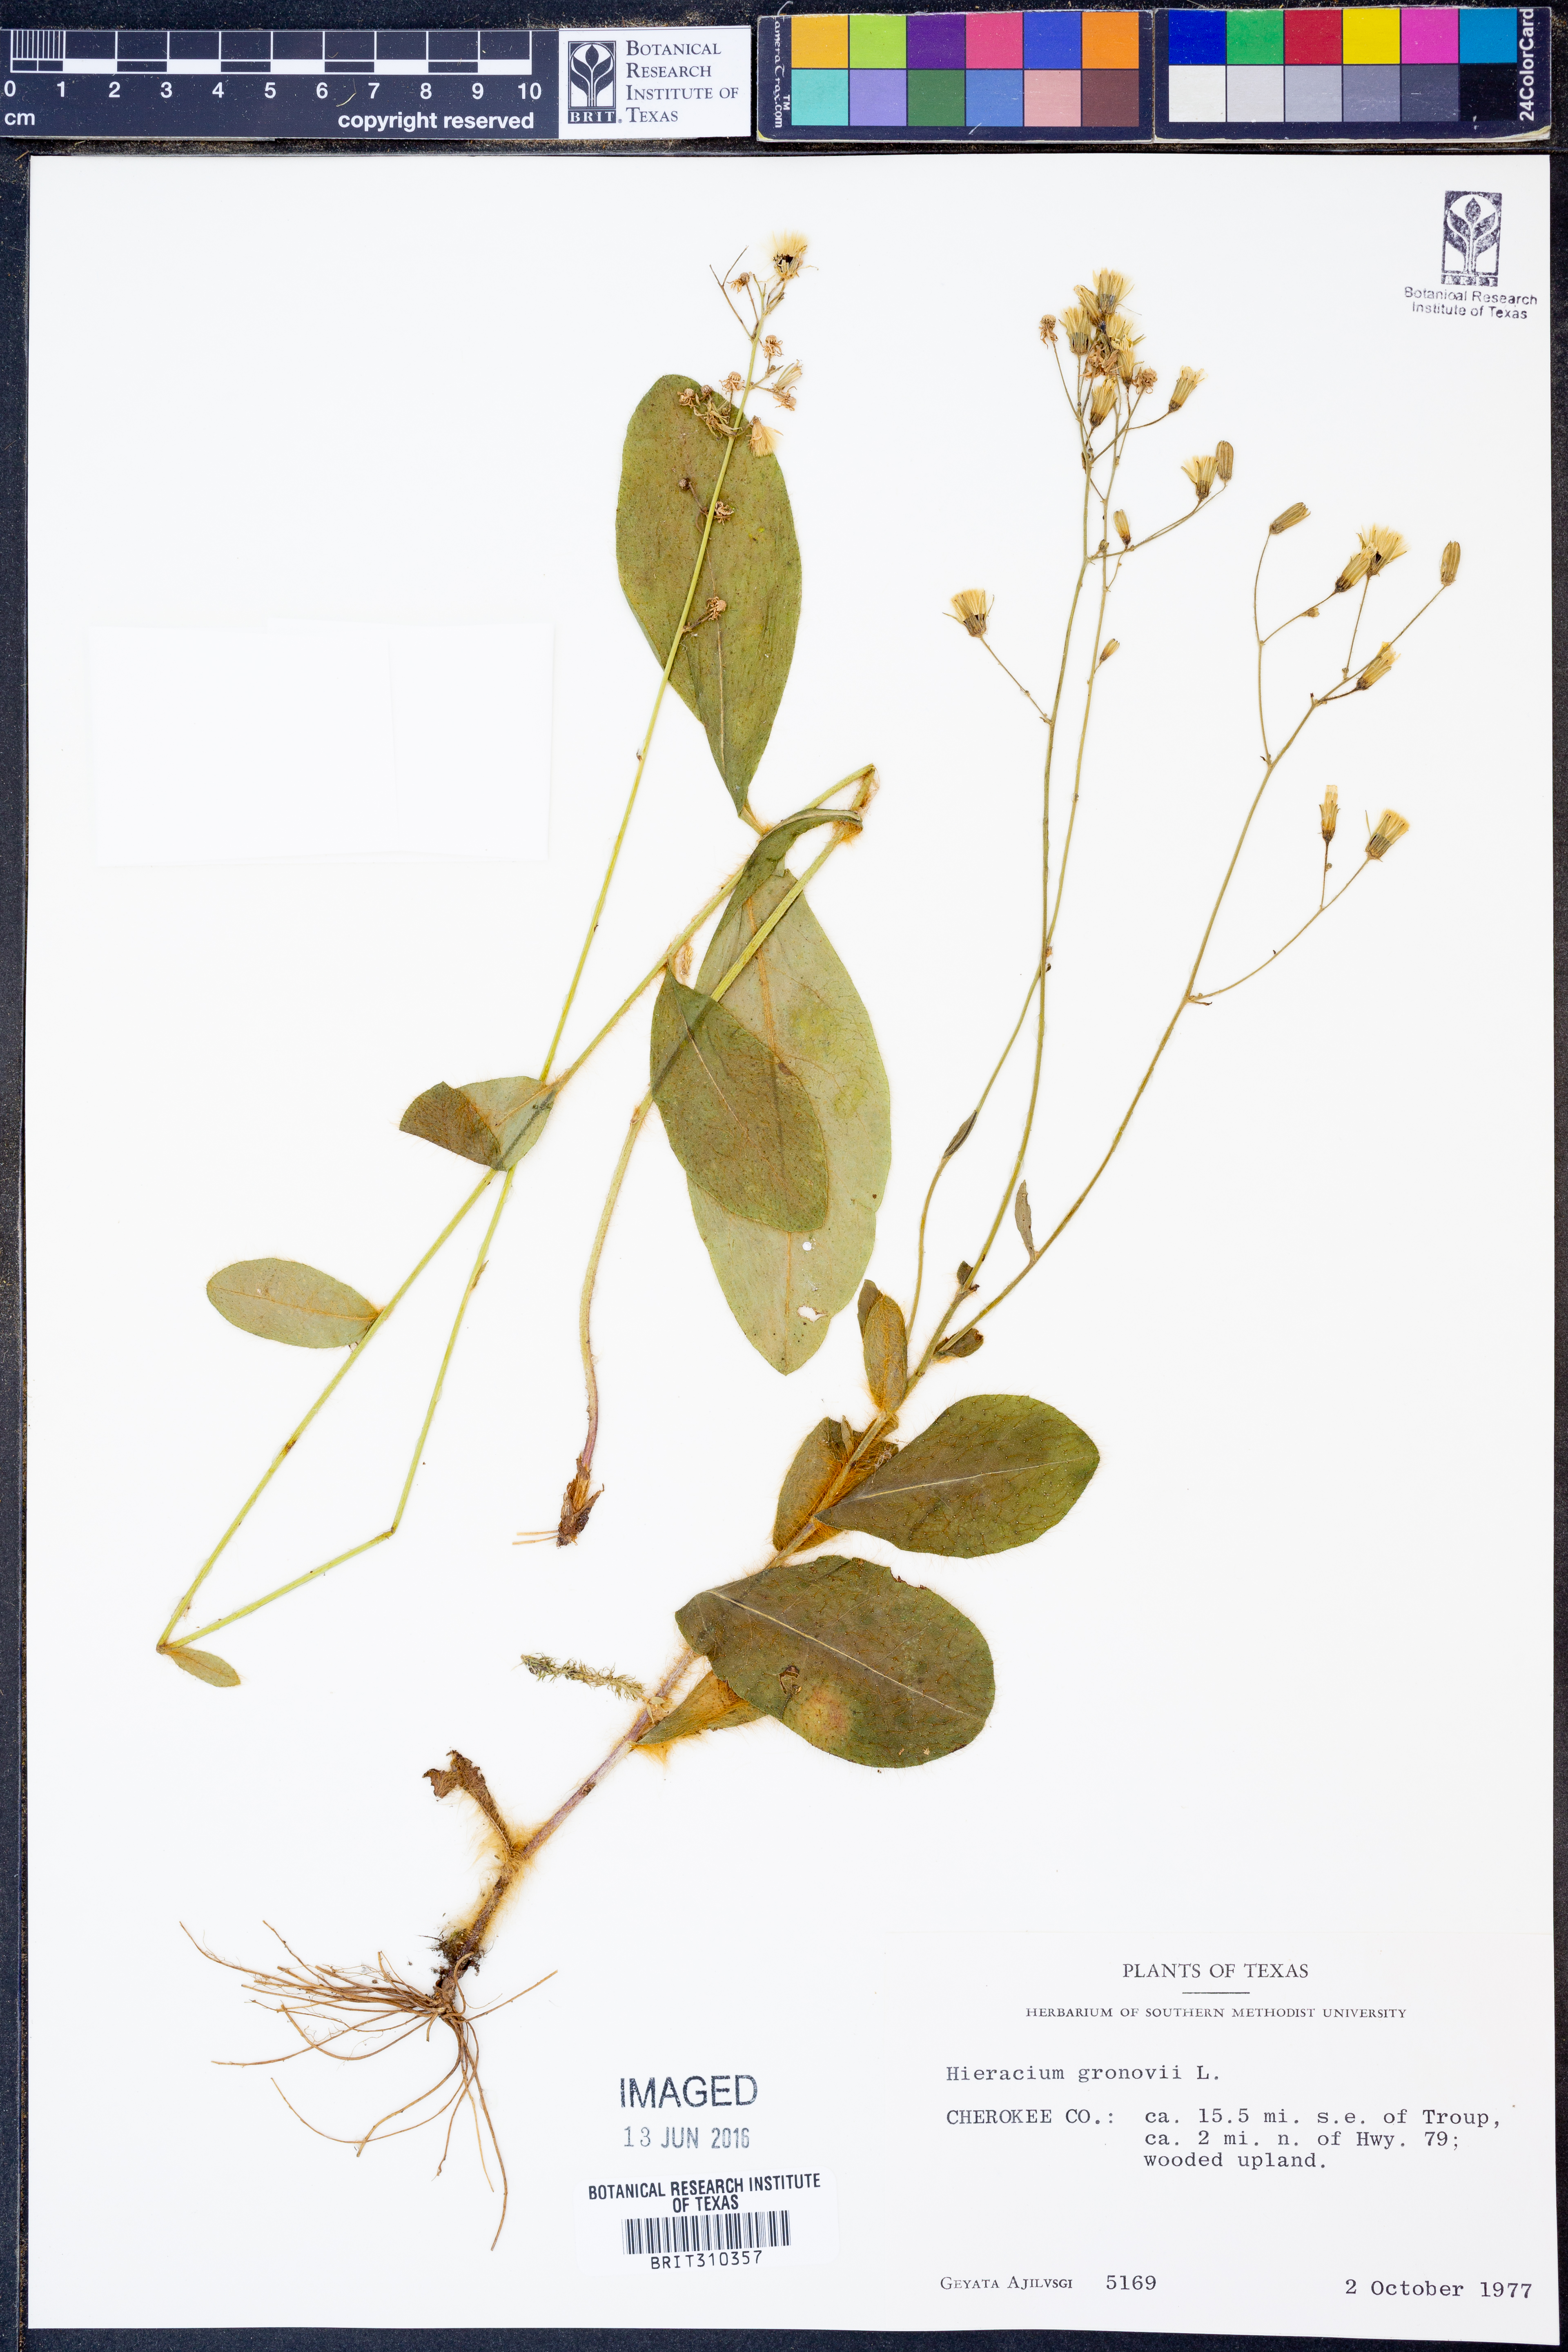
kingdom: Plantae
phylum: Tracheophyta
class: Magnoliopsida
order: Asterales
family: Asteraceae
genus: Hieracium
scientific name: Hieracium gronovii
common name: Beaked hawkweed
